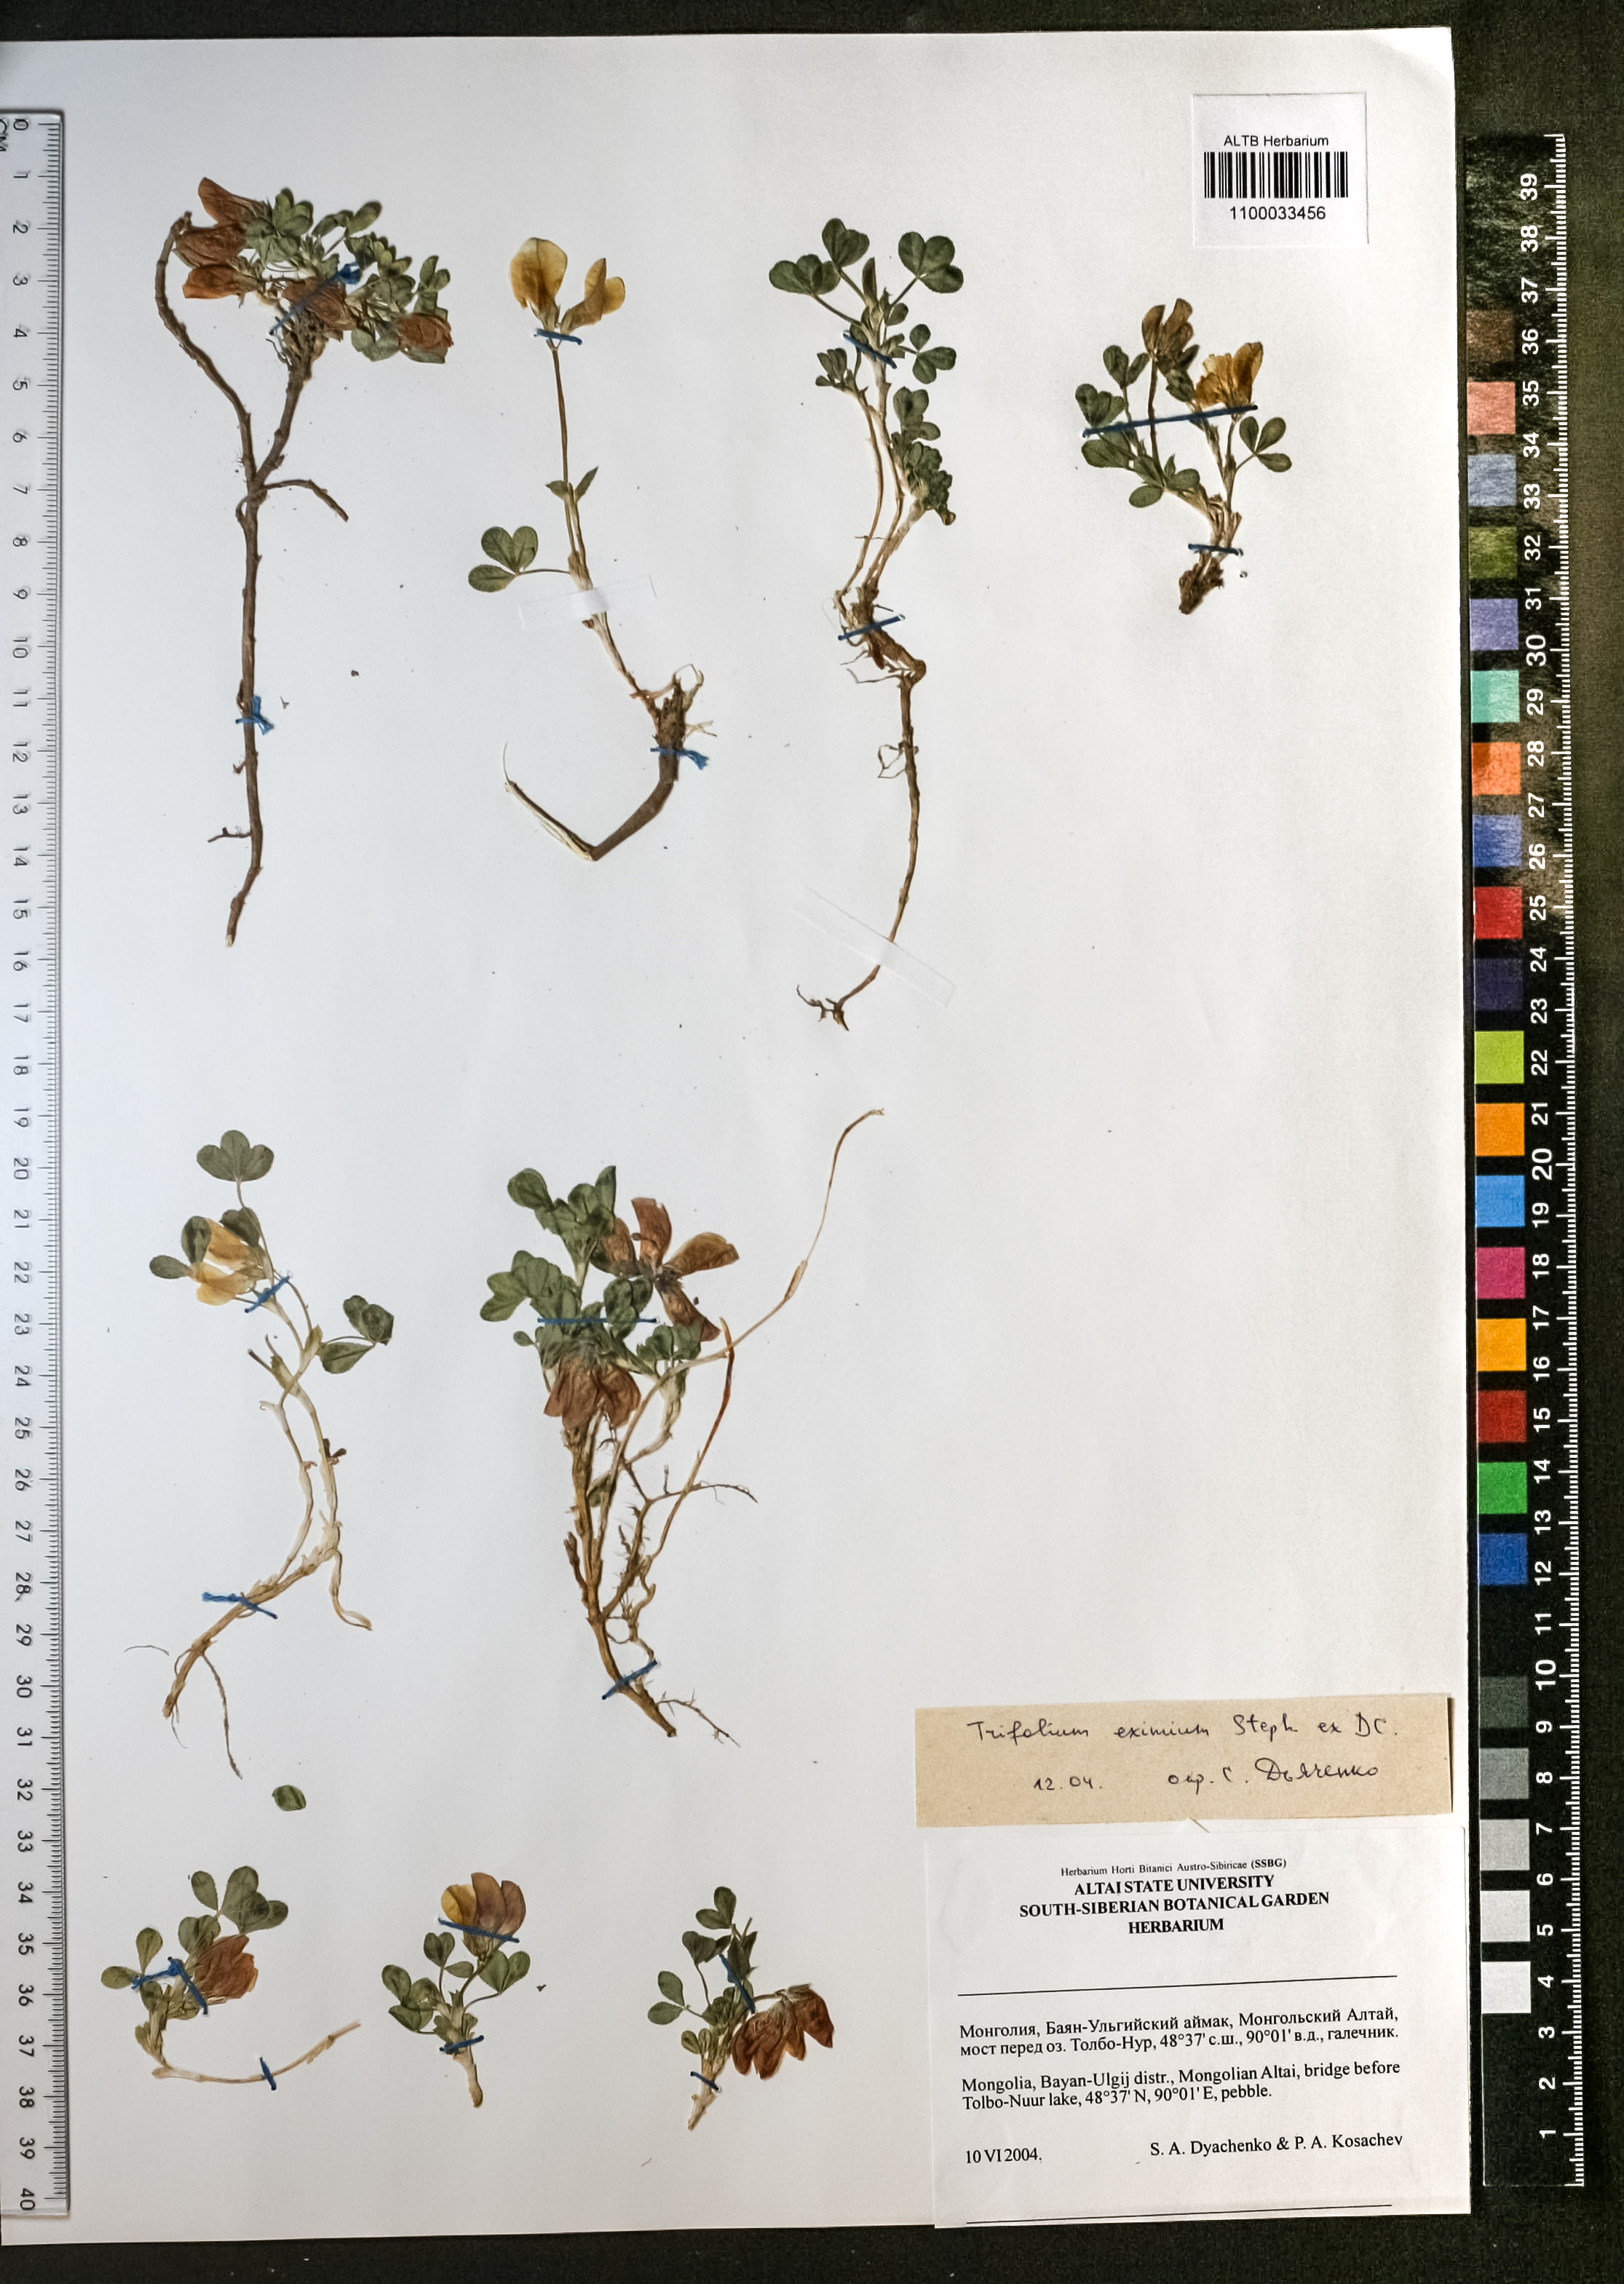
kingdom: Plantae
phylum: Tracheophyta
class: Magnoliopsida
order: Fabales
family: Fabaceae
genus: Trifolium
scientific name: Trifolium eximium
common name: Excellent clover
